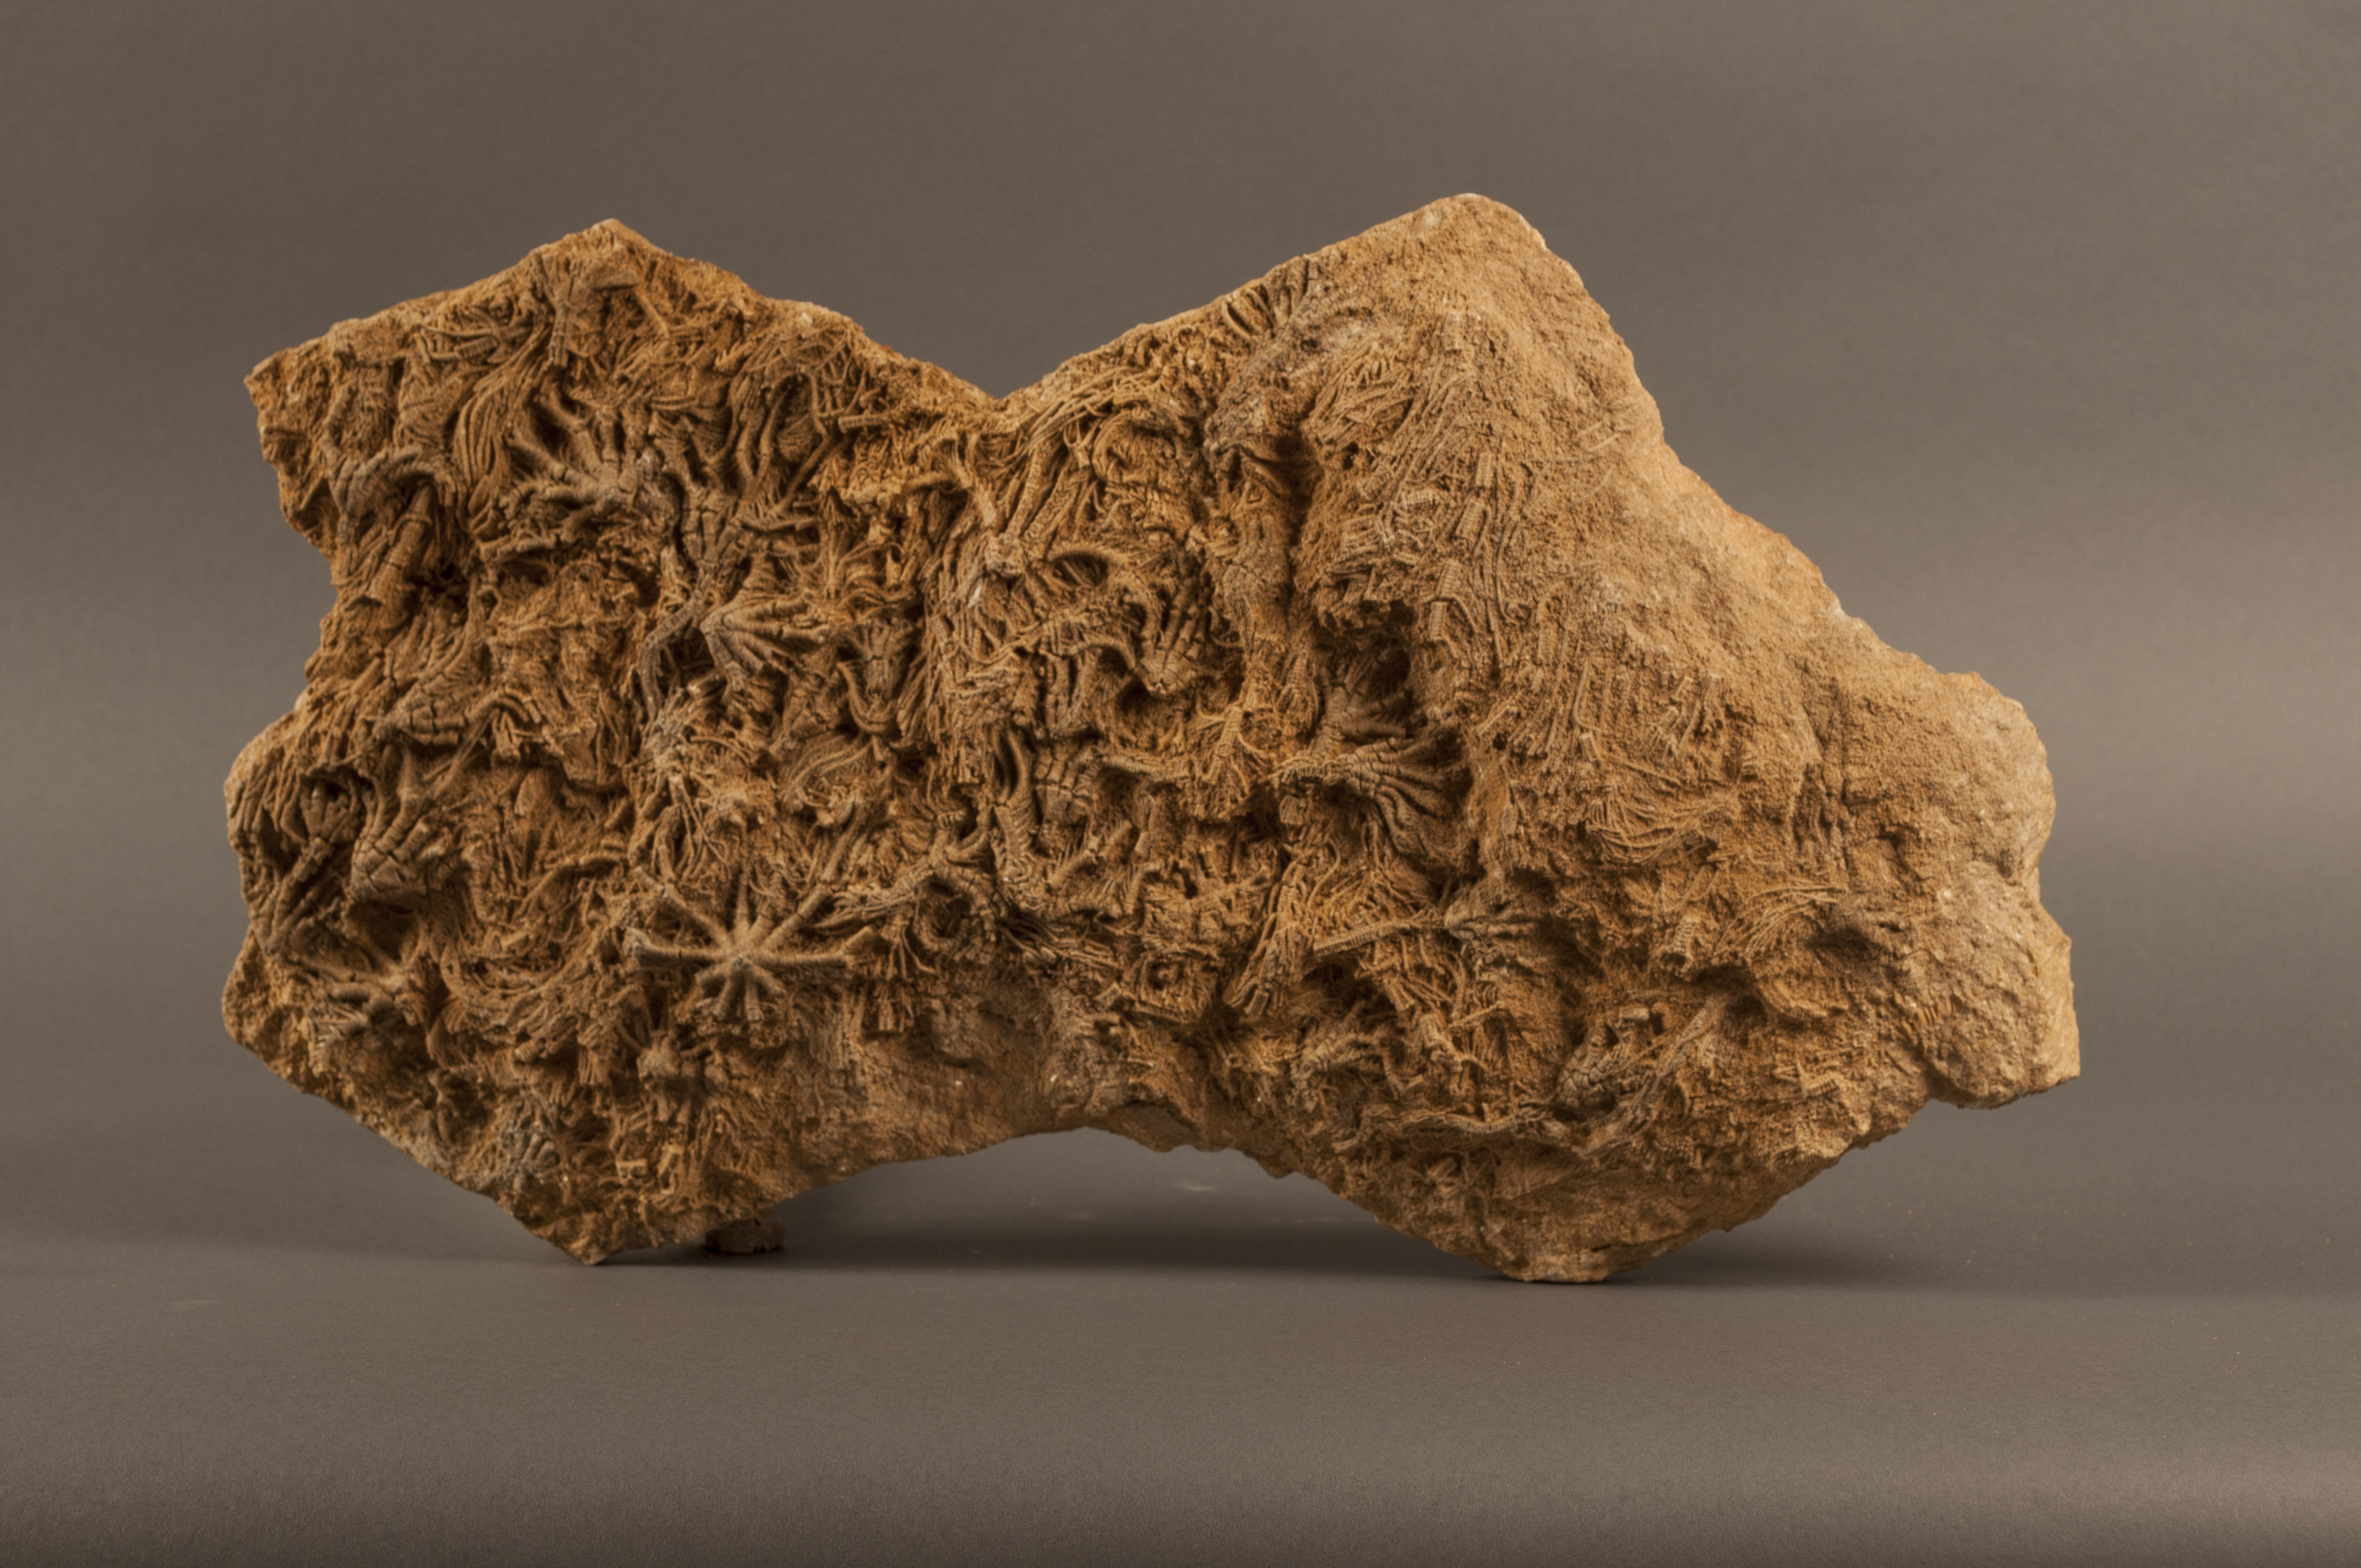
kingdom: Animalia
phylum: Echinodermata
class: Crinoidea
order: Isocrinida
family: Isocrinidae
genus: Isocrinus
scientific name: Isocrinus
